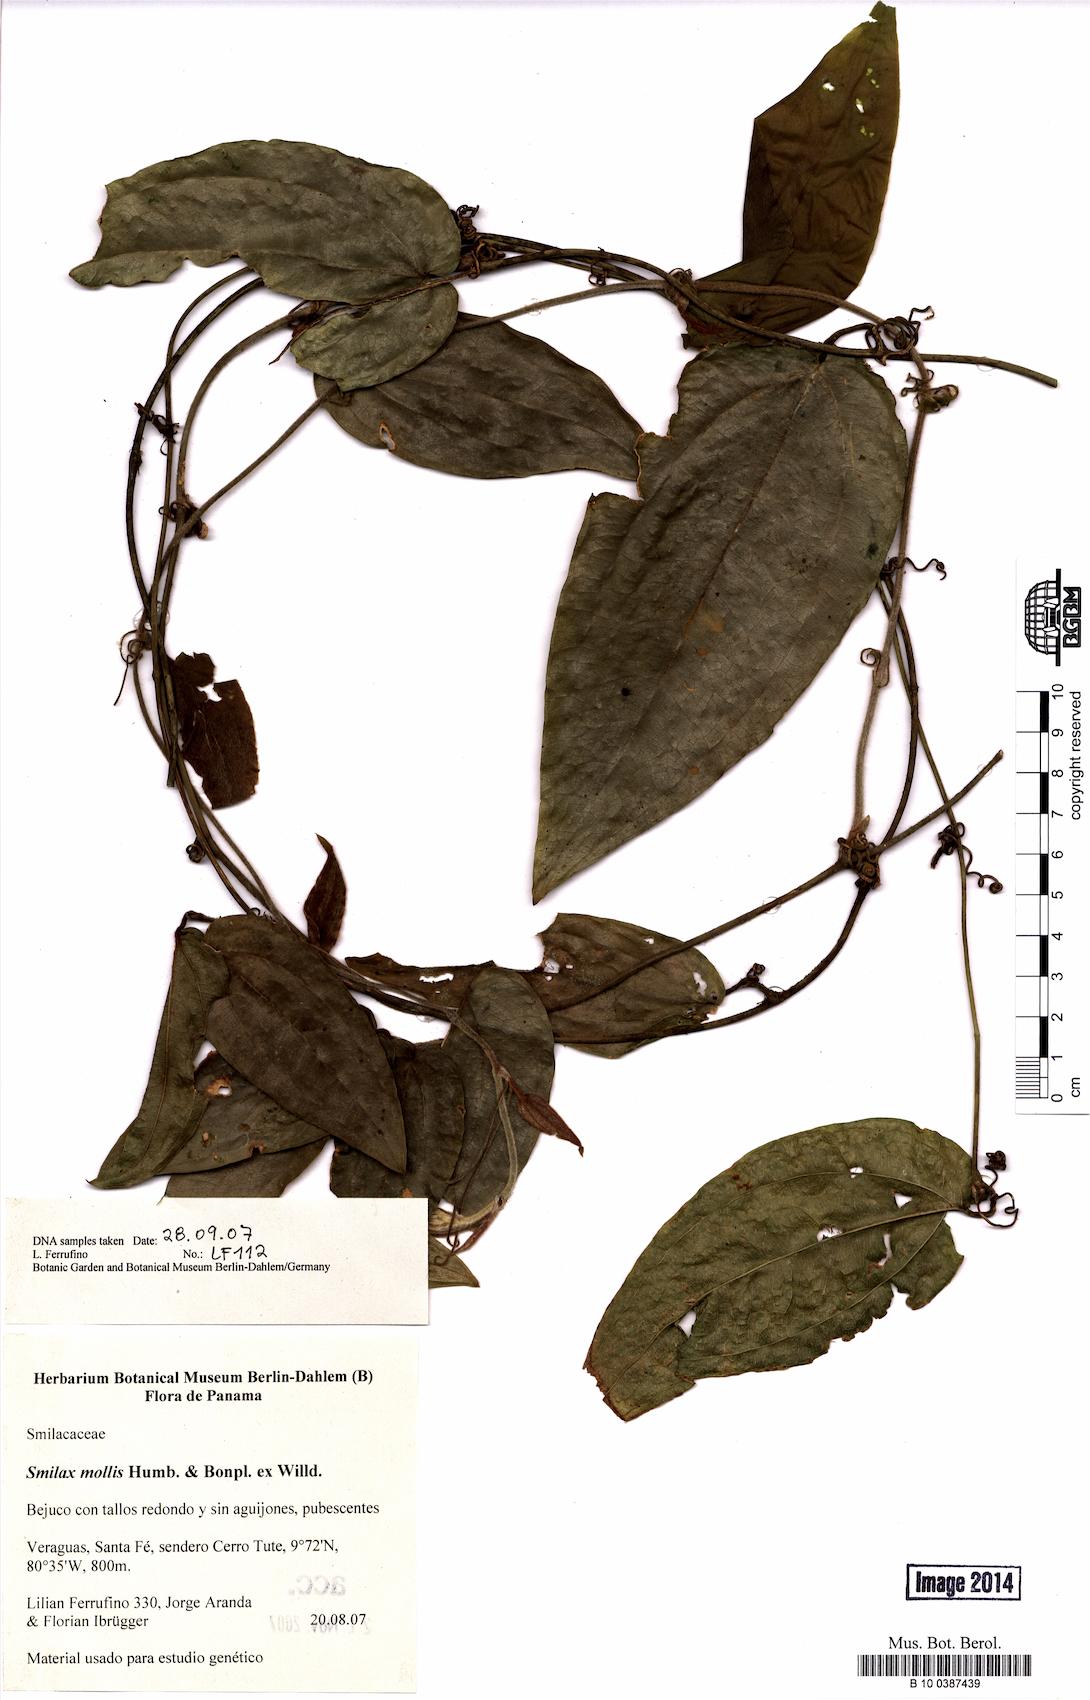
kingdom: Plantae
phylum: Tracheophyta
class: Liliopsida
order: Liliales
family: Smilacaceae
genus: Smilax
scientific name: Smilax mollis
